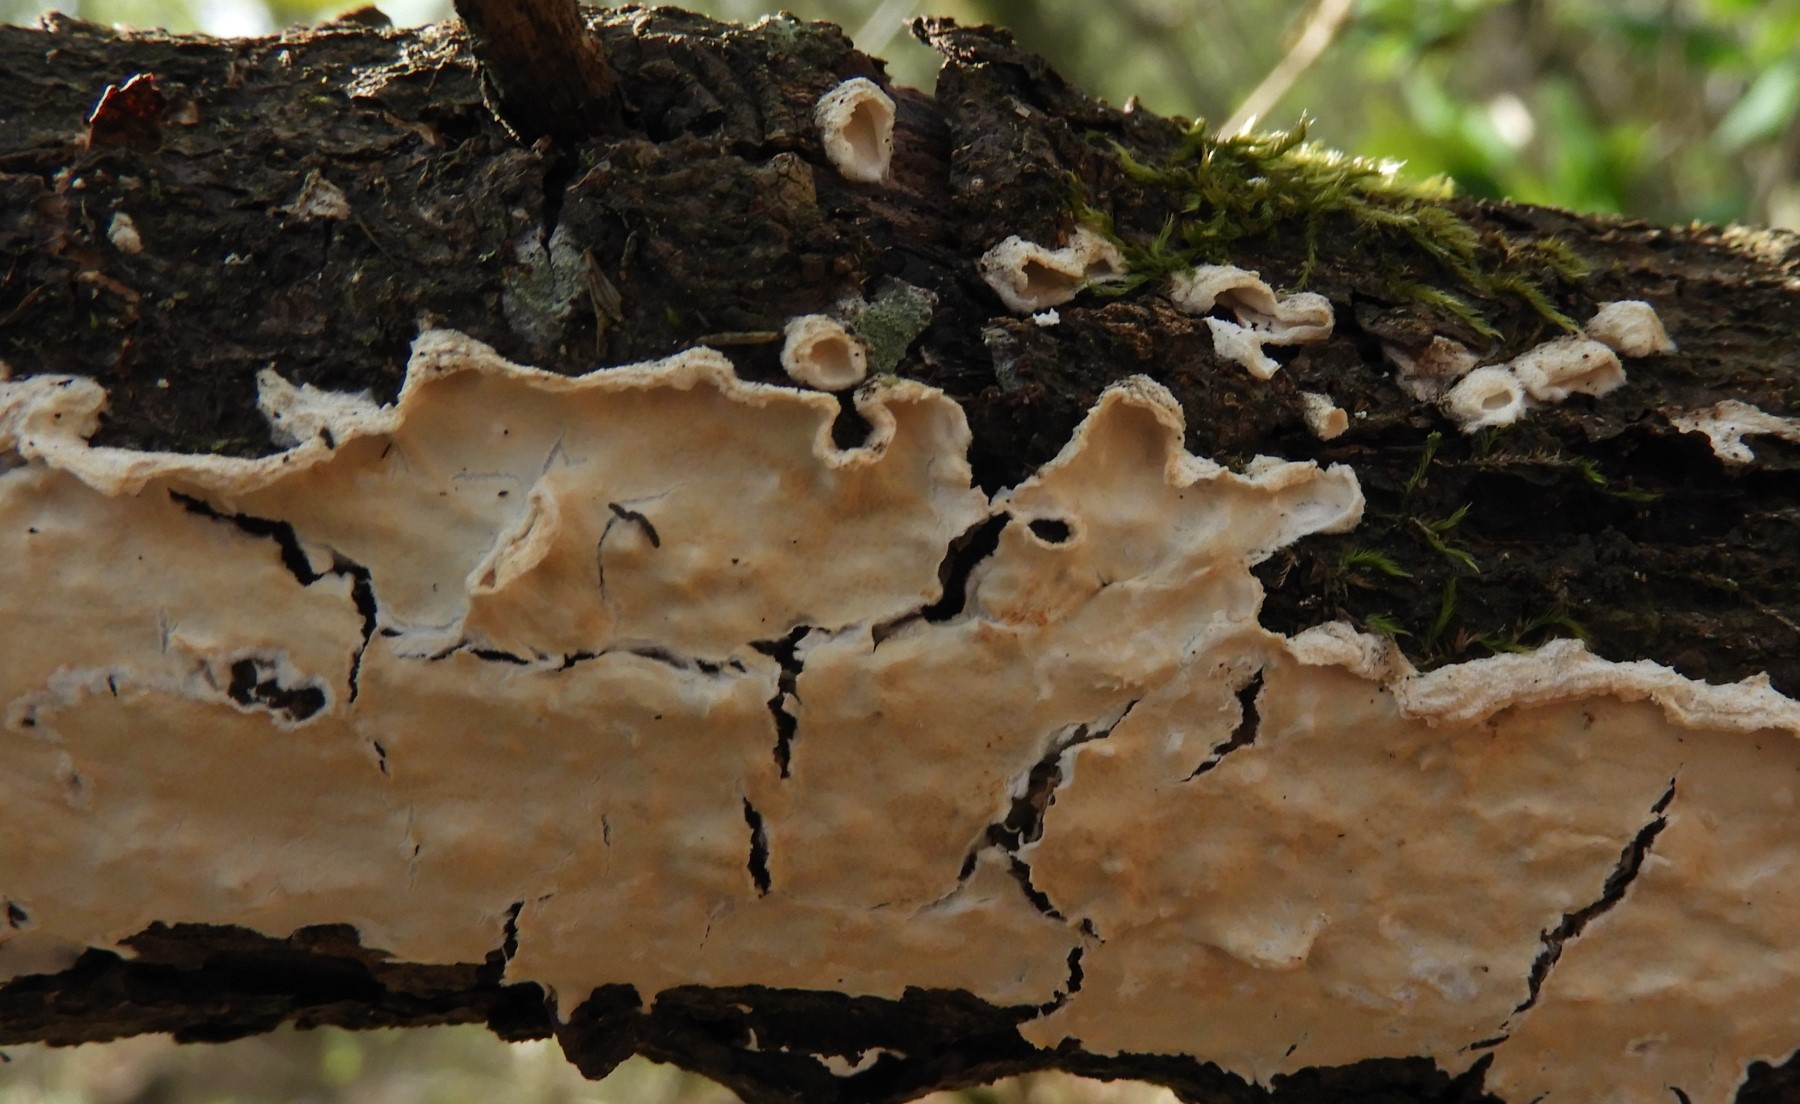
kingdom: Fungi
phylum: Basidiomycota
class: Agaricomycetes
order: Polyporales
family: Irpicaceae
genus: Byssomerulius
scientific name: Byssomerulius corium
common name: læder-åresvamp
